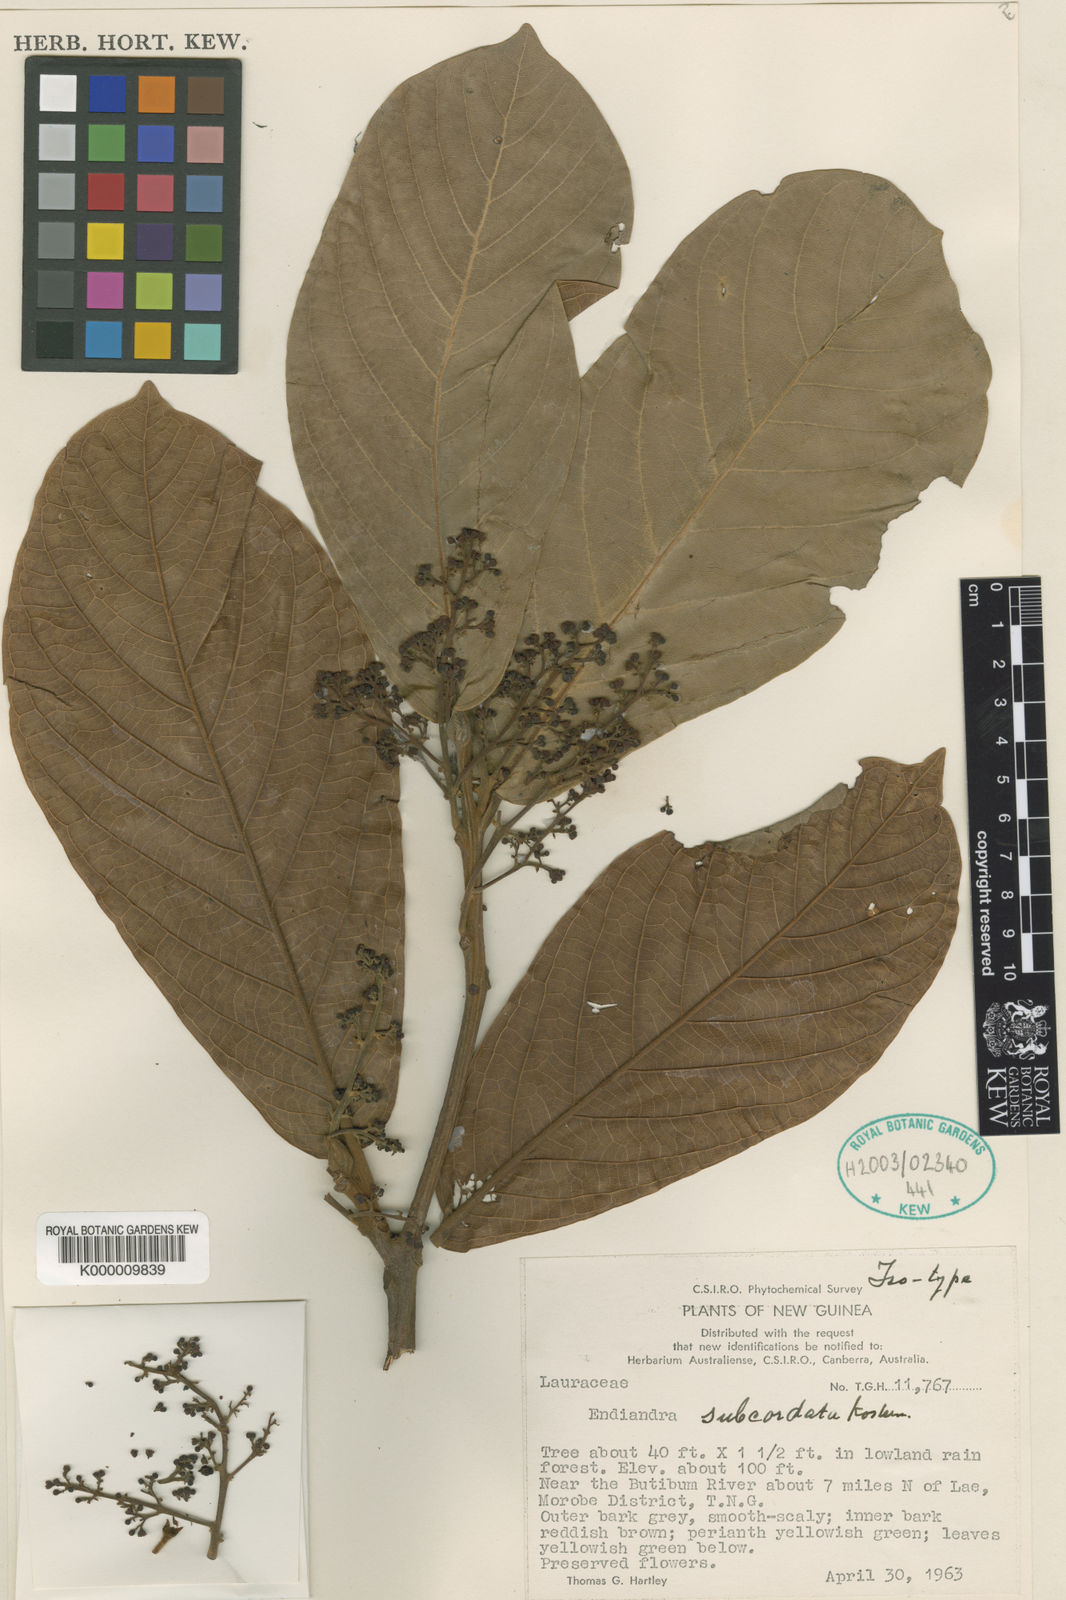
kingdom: Plantae
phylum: Tracheophyta
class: Magnoliopsida
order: Laurales
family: Lauraceae
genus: Endiandra
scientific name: Endiandra
